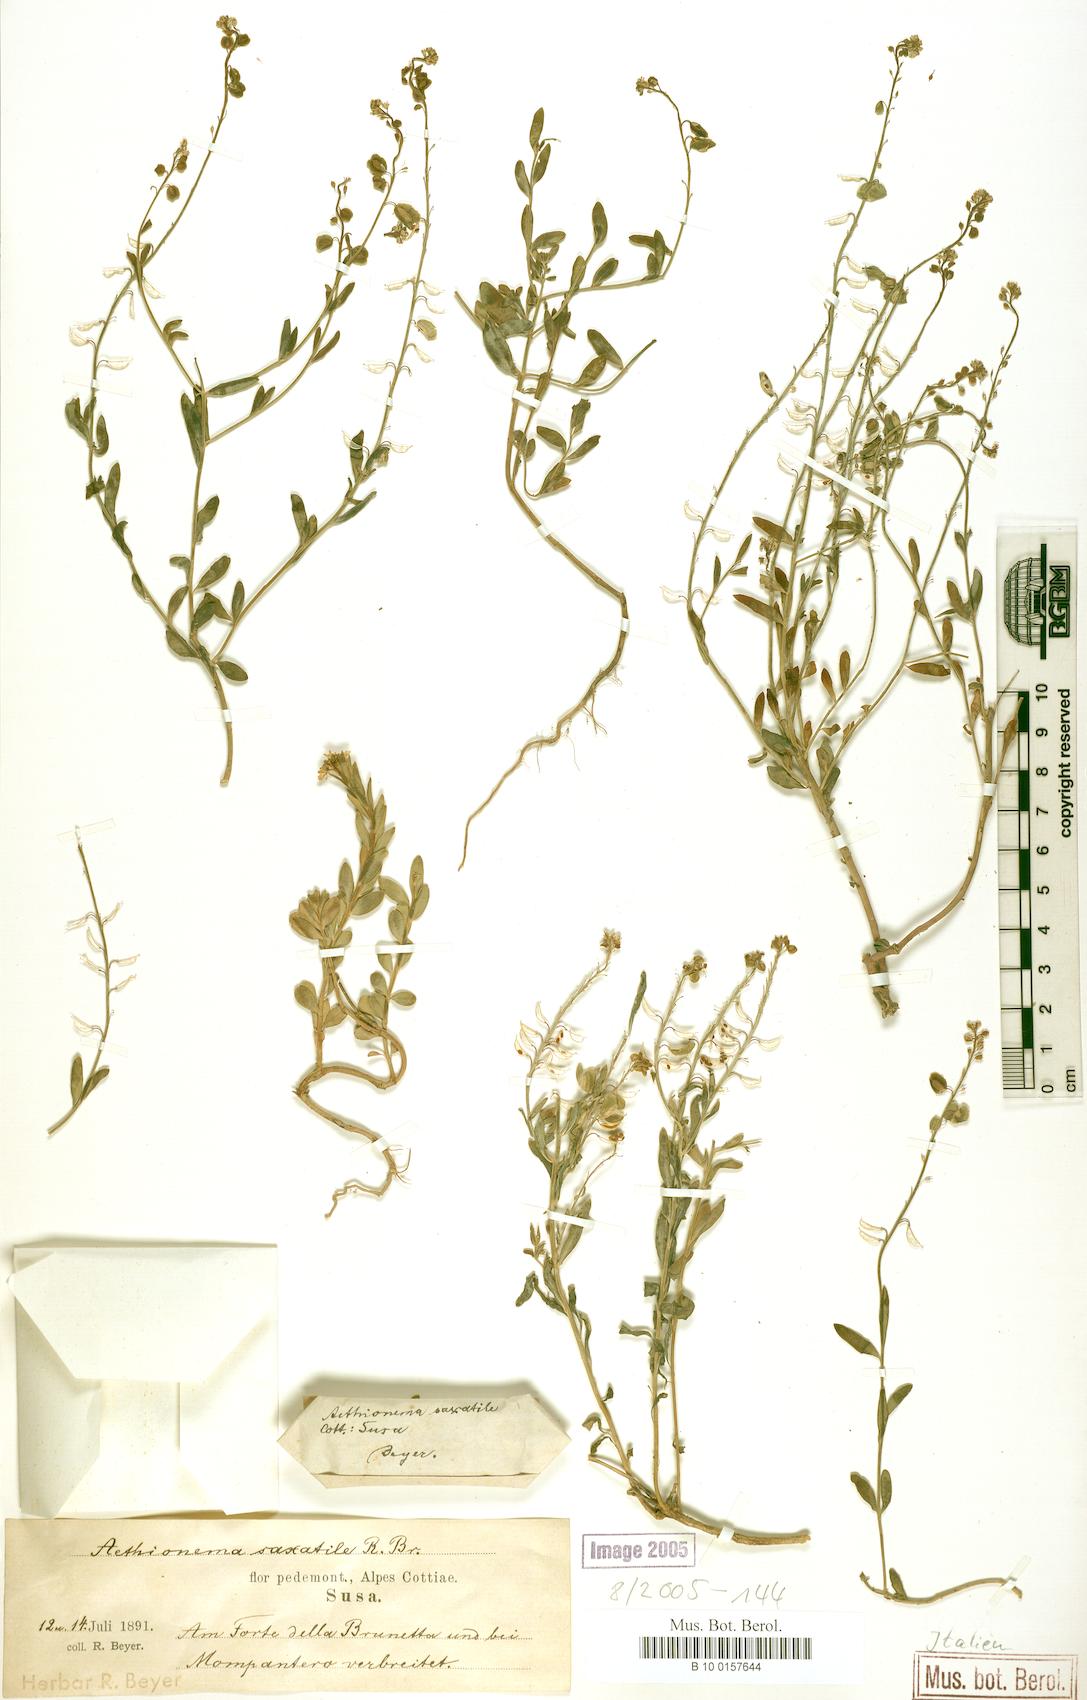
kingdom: Plantae
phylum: Tracheophyta
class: Magnoliopsida
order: Brassicales
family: Brassicaceae
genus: Aethionema
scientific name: Aethionema saxatile
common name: Burnt candytuft
